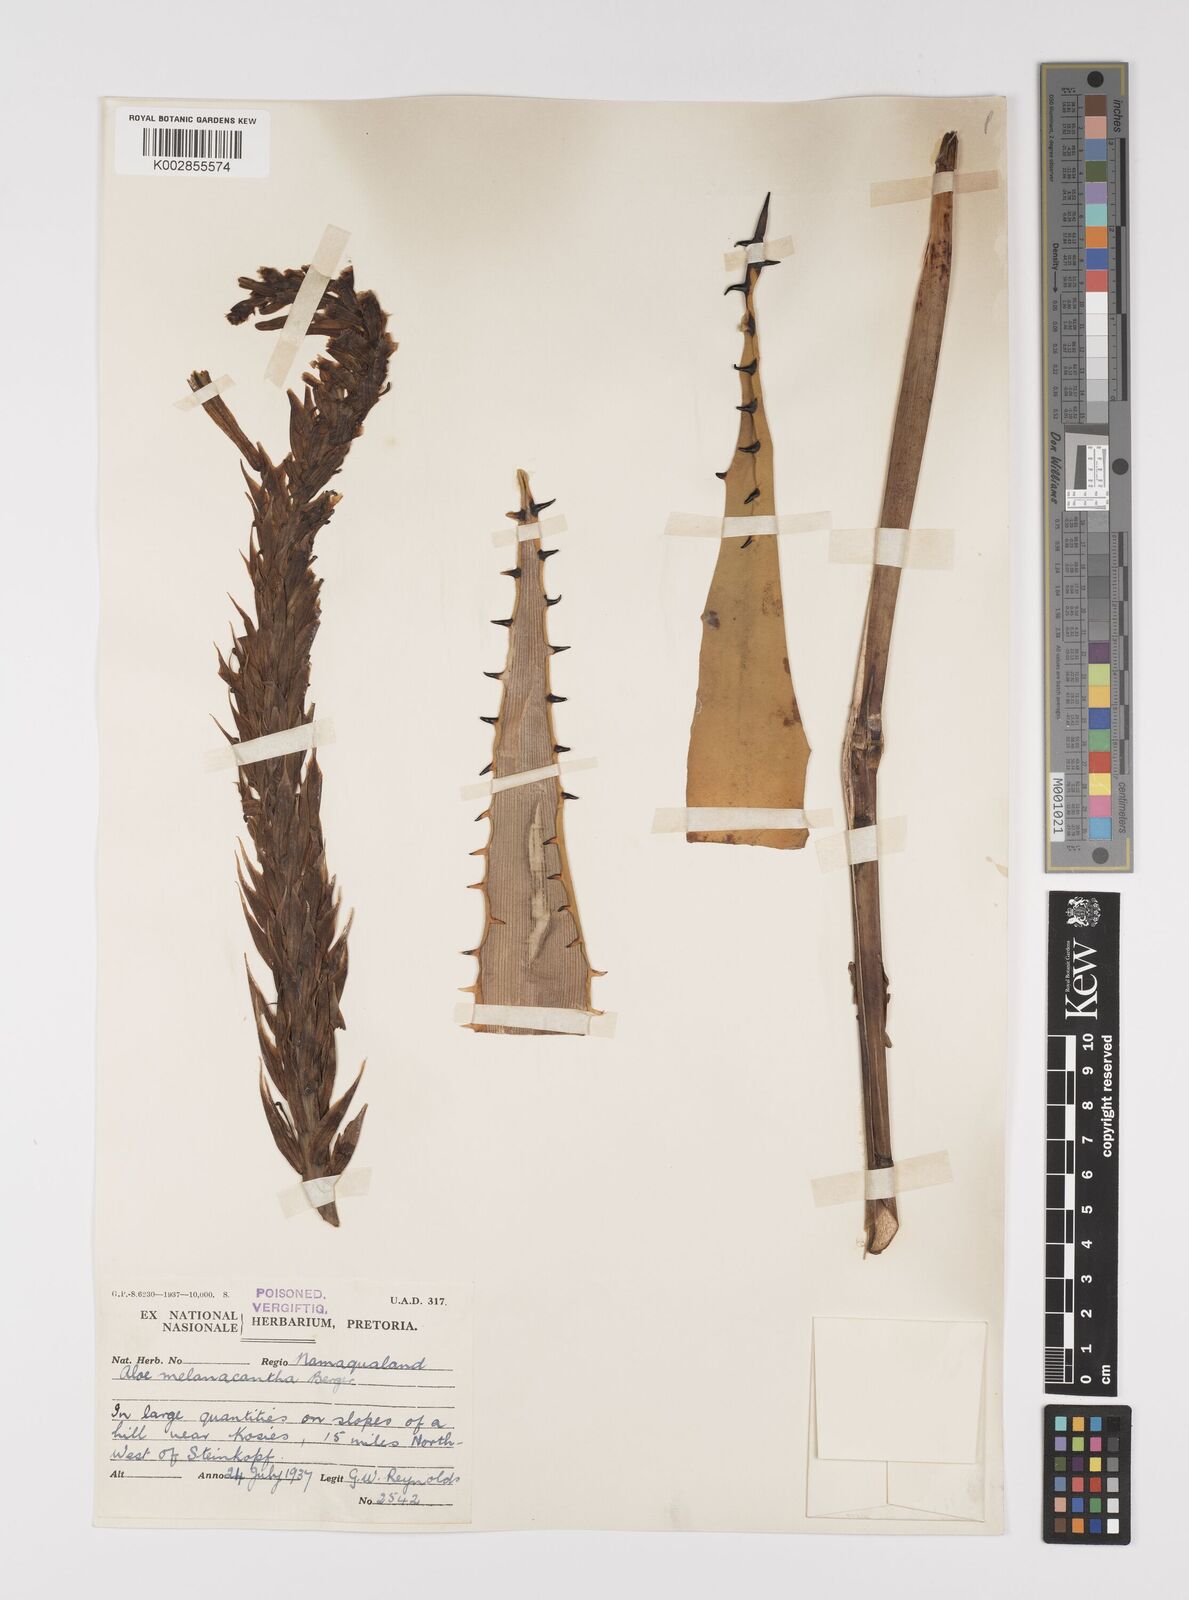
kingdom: Plantae
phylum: Tracheophyta
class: Liliopsida
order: Asparagales
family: Asphodelaceae
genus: Aloe
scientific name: Aloe melanacantha
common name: Black thorn aloe
